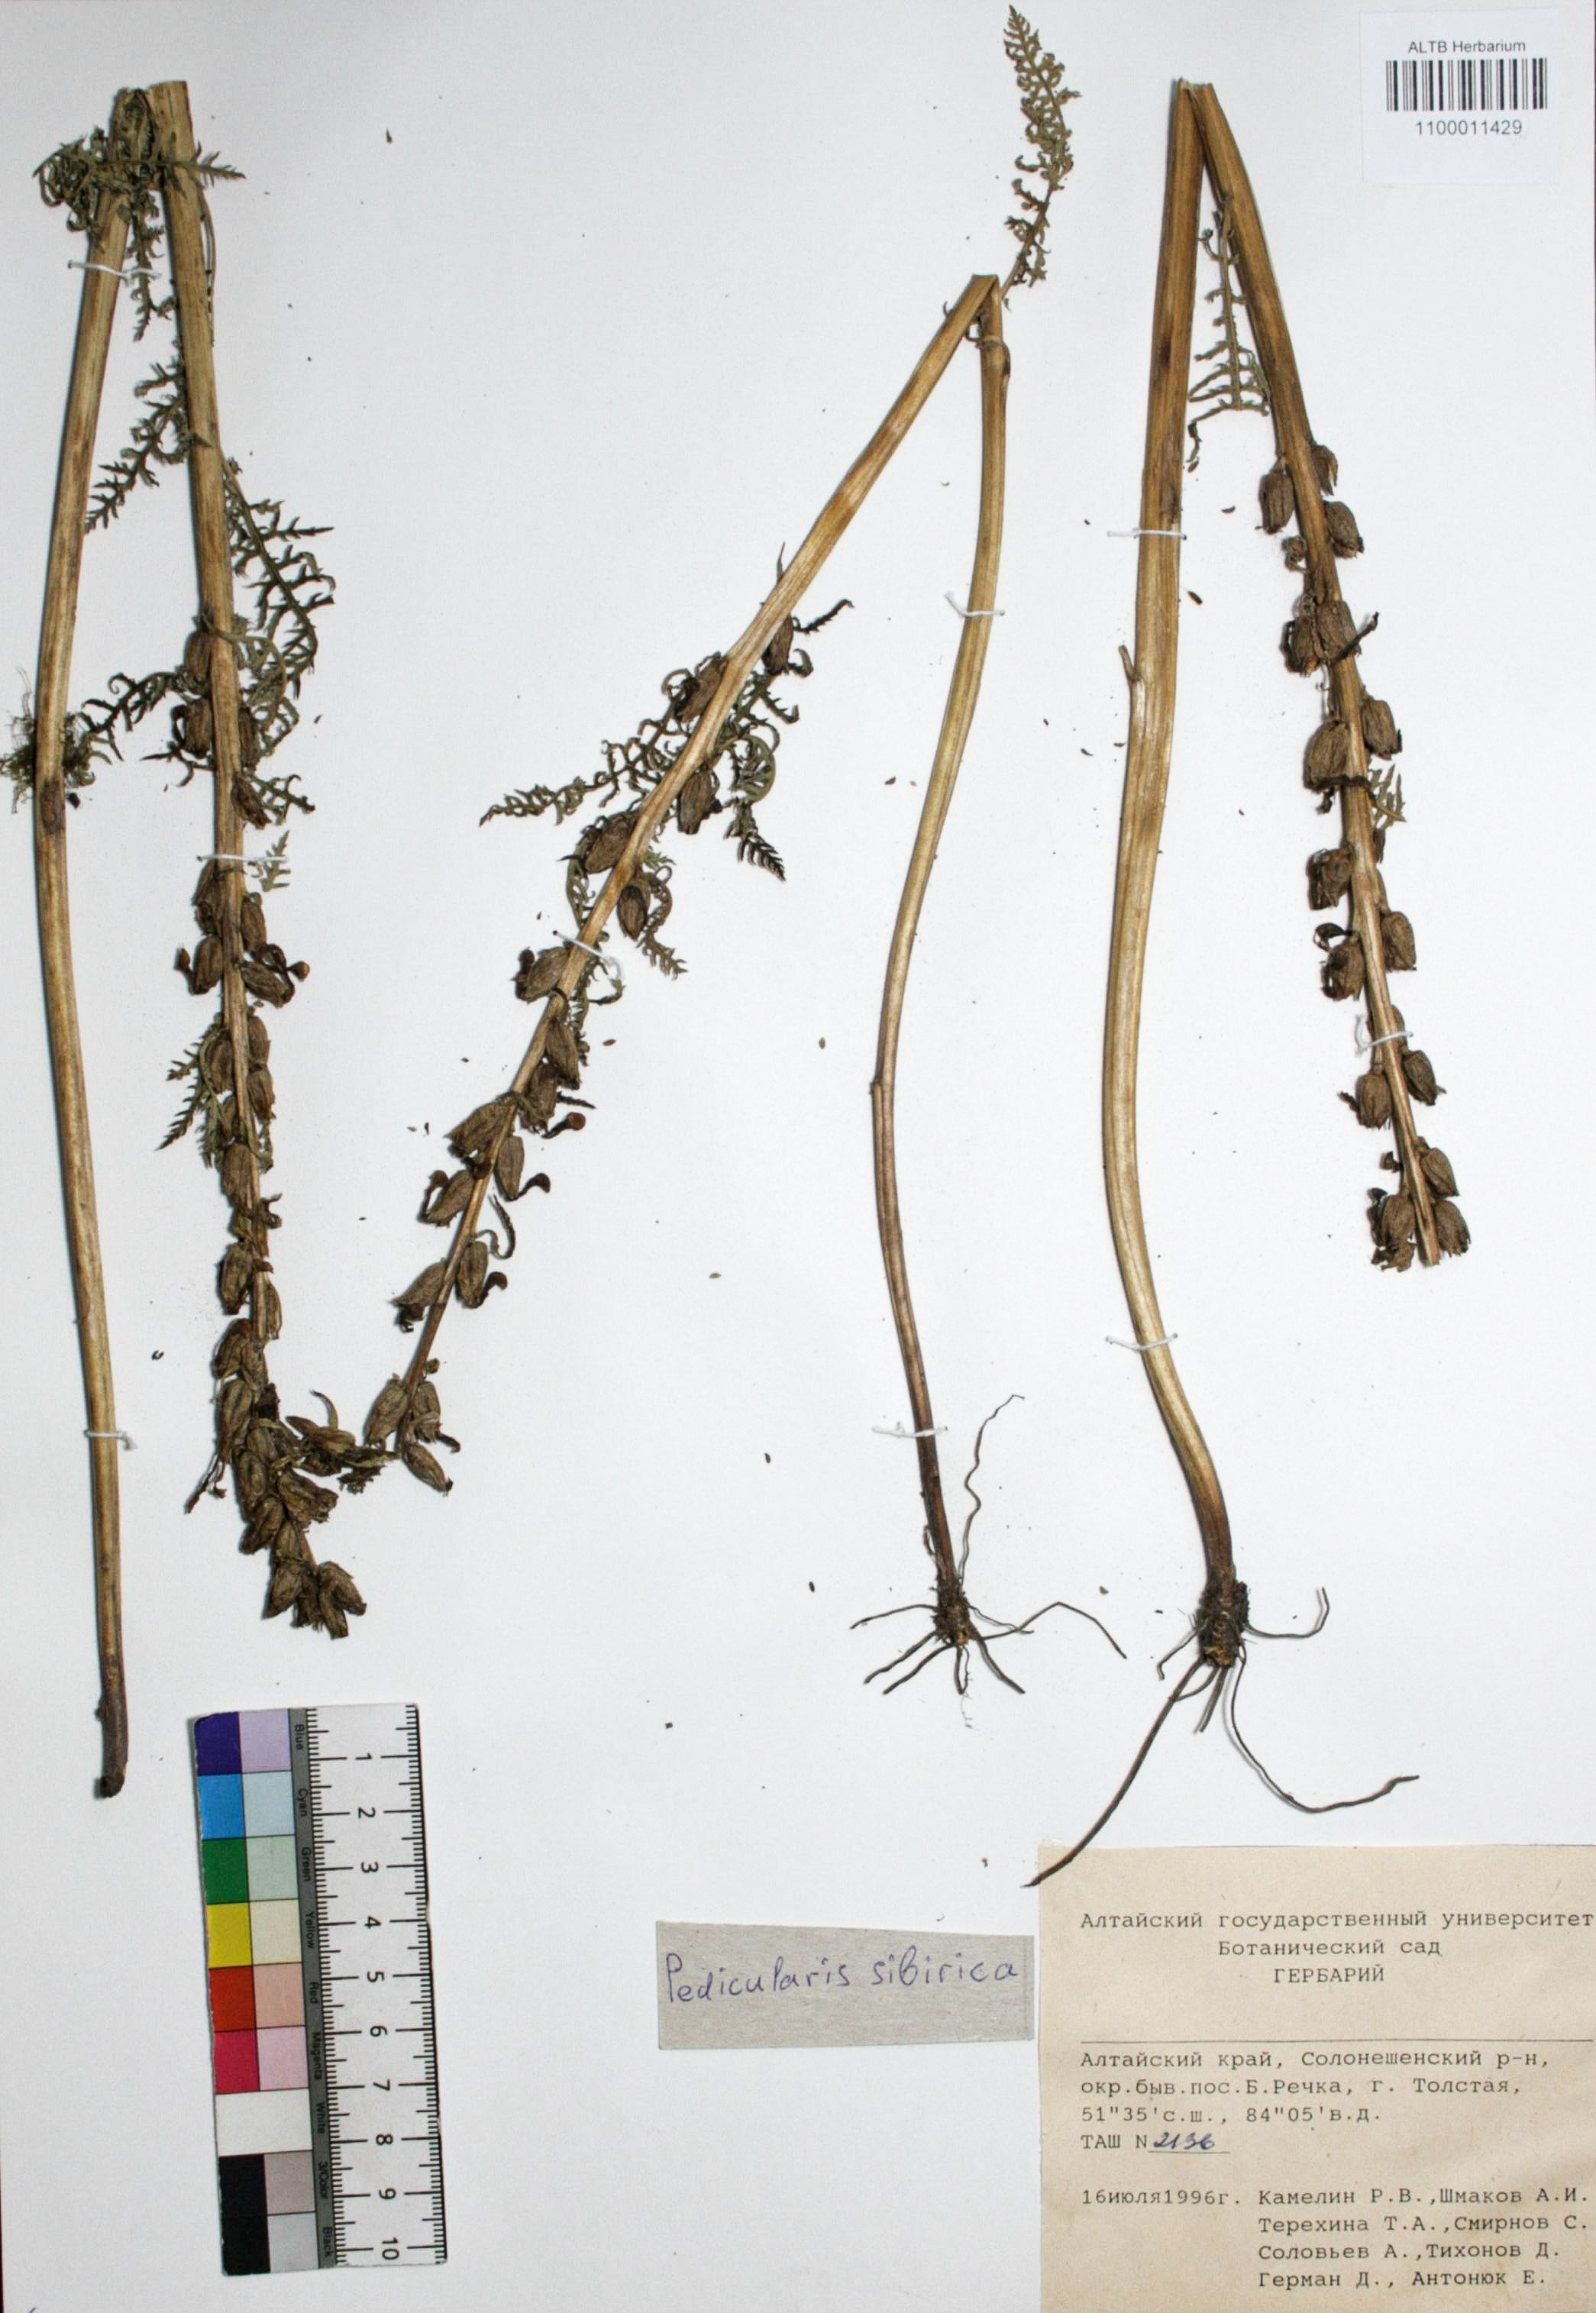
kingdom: Plantae
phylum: Tracheophyta
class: Magnoliopsida
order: Lamiales
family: Orobanchaceae
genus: Pedicularis
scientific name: Pedicularis sibirica
